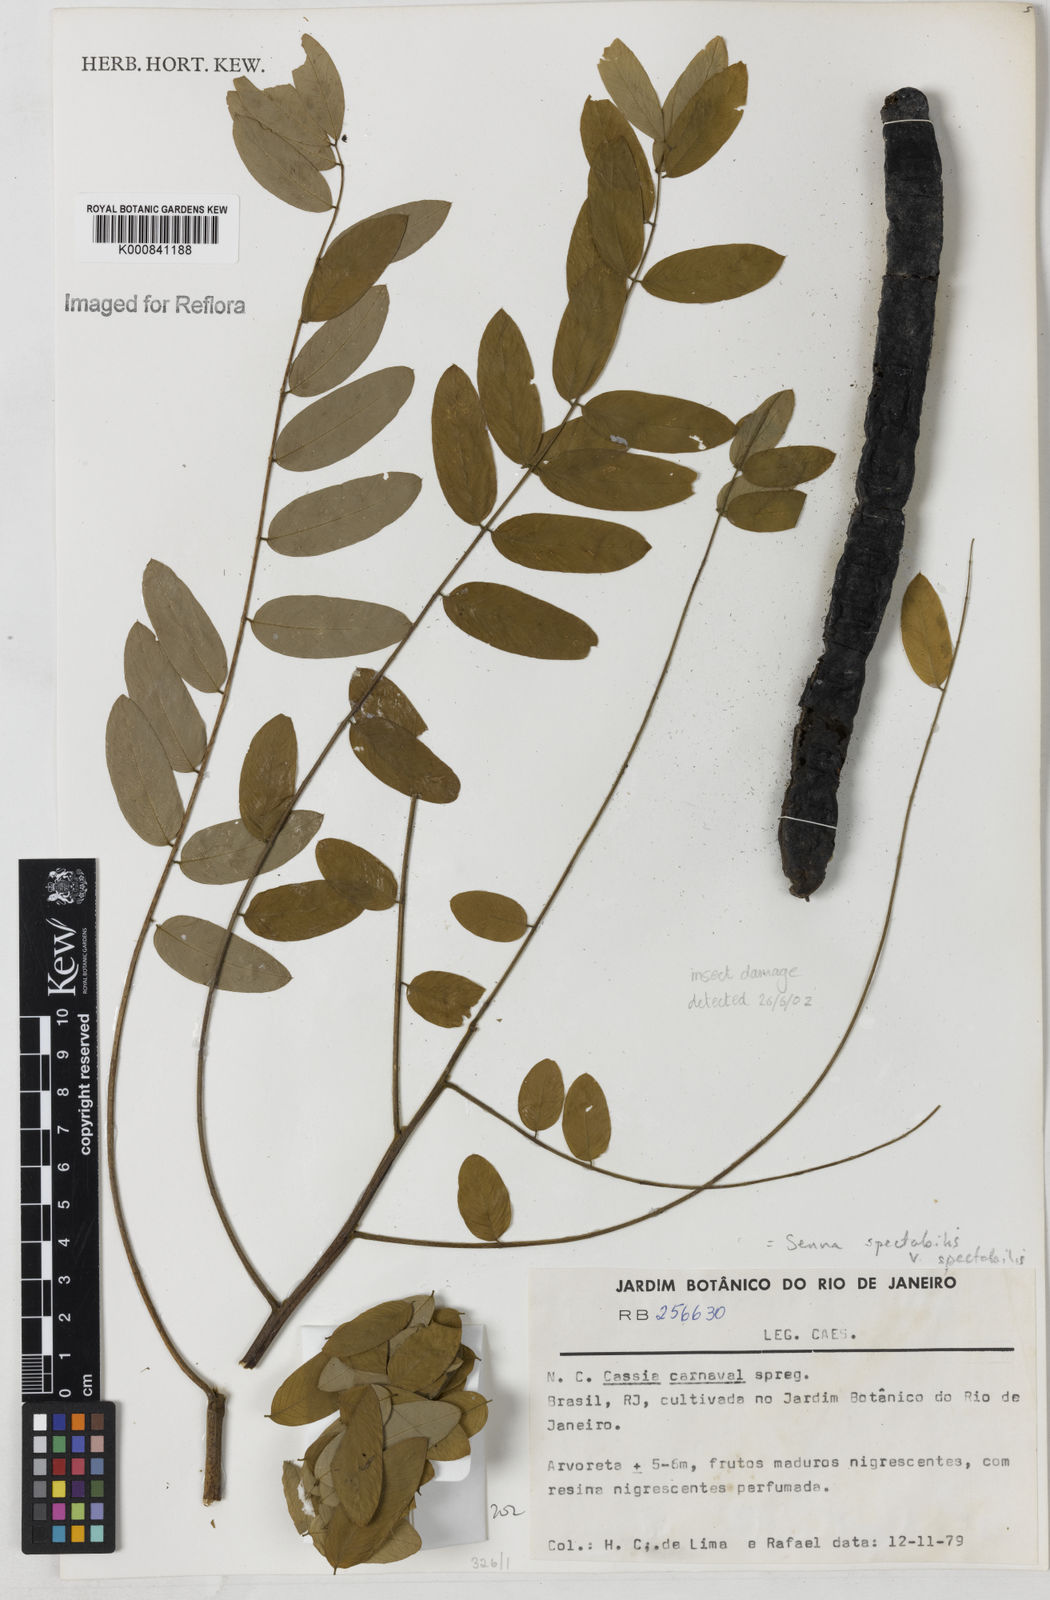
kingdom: Plantae
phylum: Tracheophyta
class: Magnoliopsida
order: Fabales
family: Fabaceae
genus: Senna
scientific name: Senna spectabilis
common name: Casia amarilla
